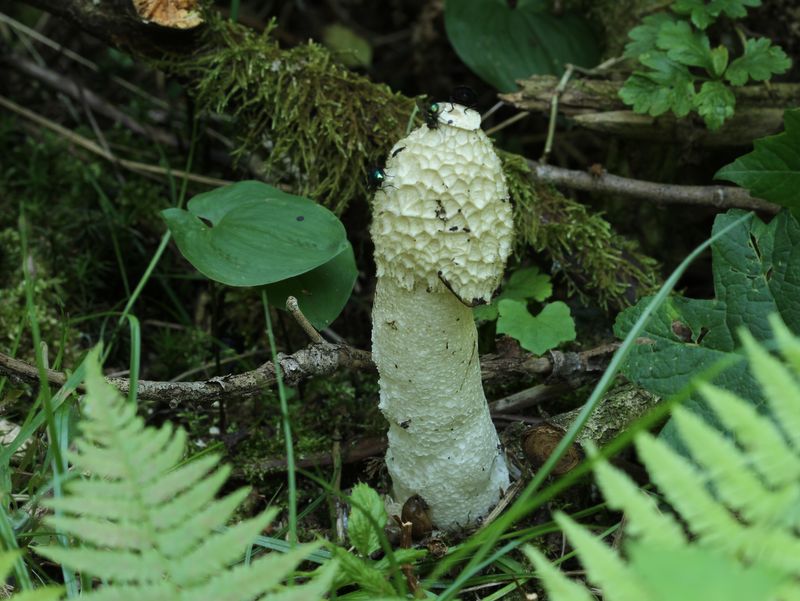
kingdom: Fungi
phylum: Basidiomycota
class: Agaricomycetes
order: Phallales
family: Phallaceae
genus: Phallus
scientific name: Phallus impudicus
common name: almindelig stinksvamp
